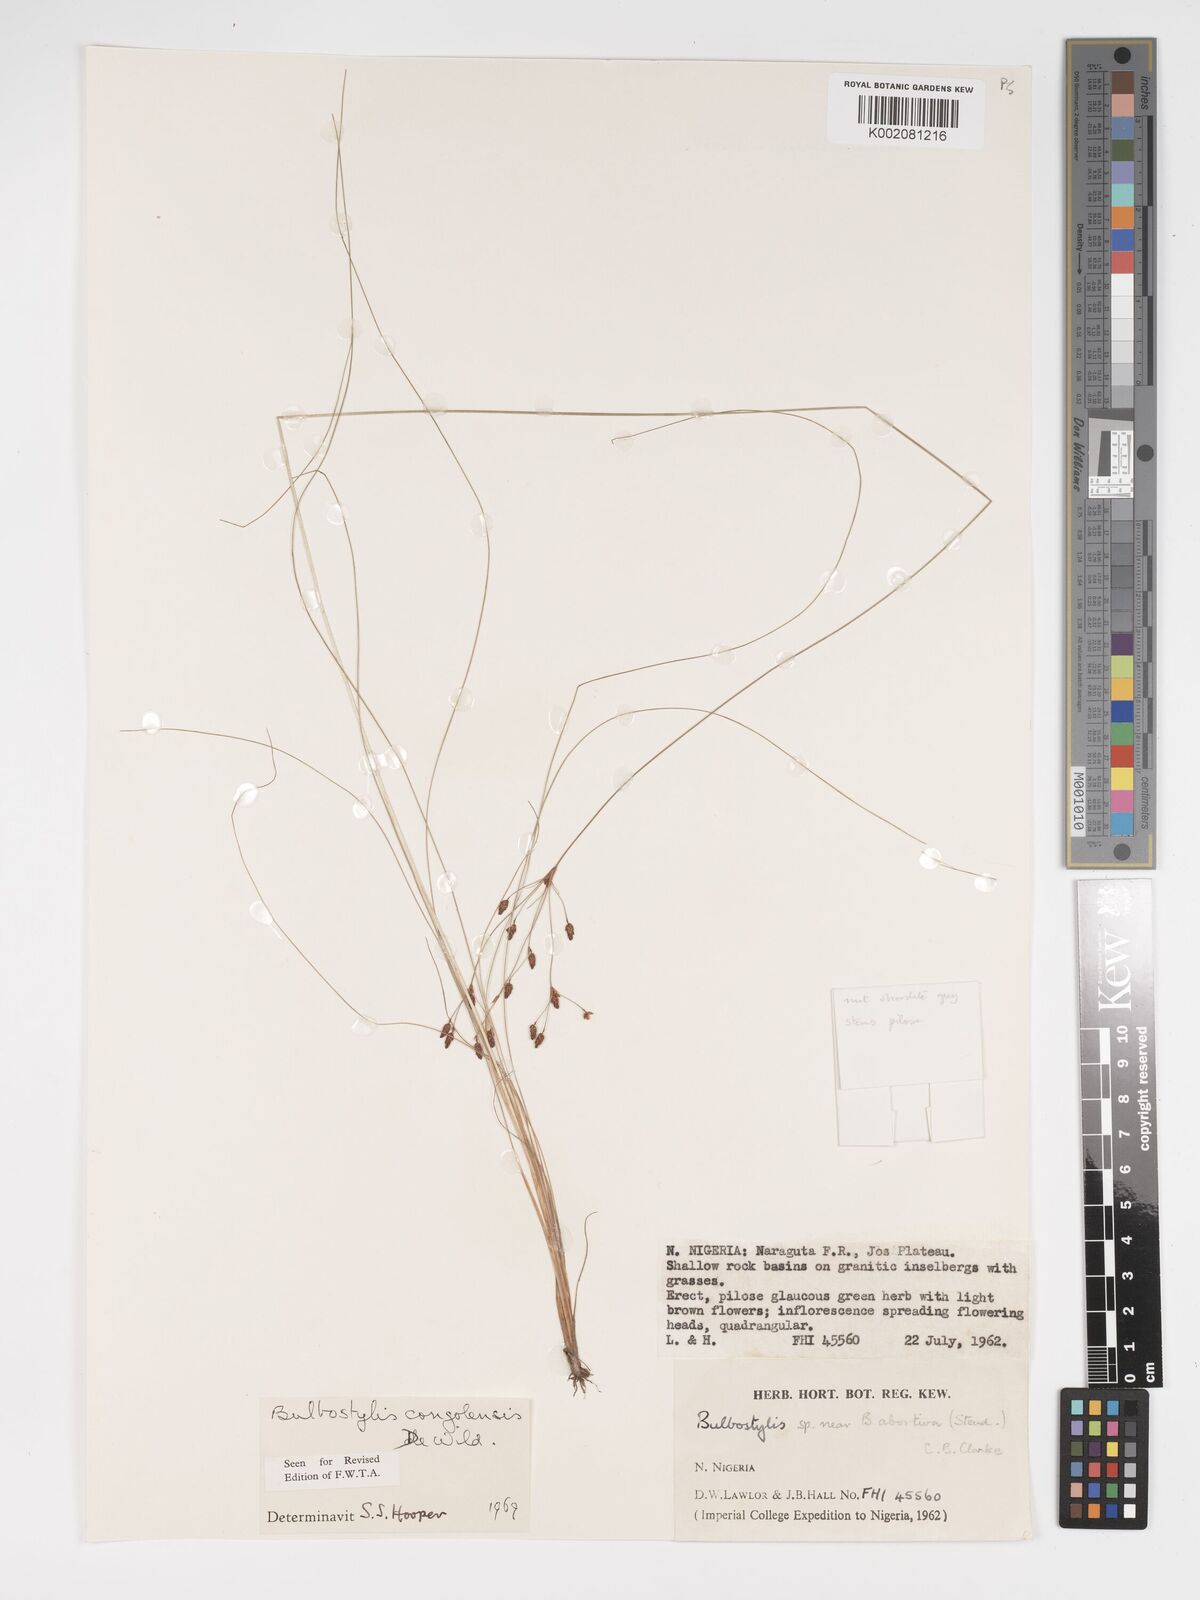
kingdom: Plantae
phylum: Tracheophyta
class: Liliopsida
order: Poales
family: Cyperaceae
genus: Bulbostylis
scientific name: Bulbostylis congolensis
